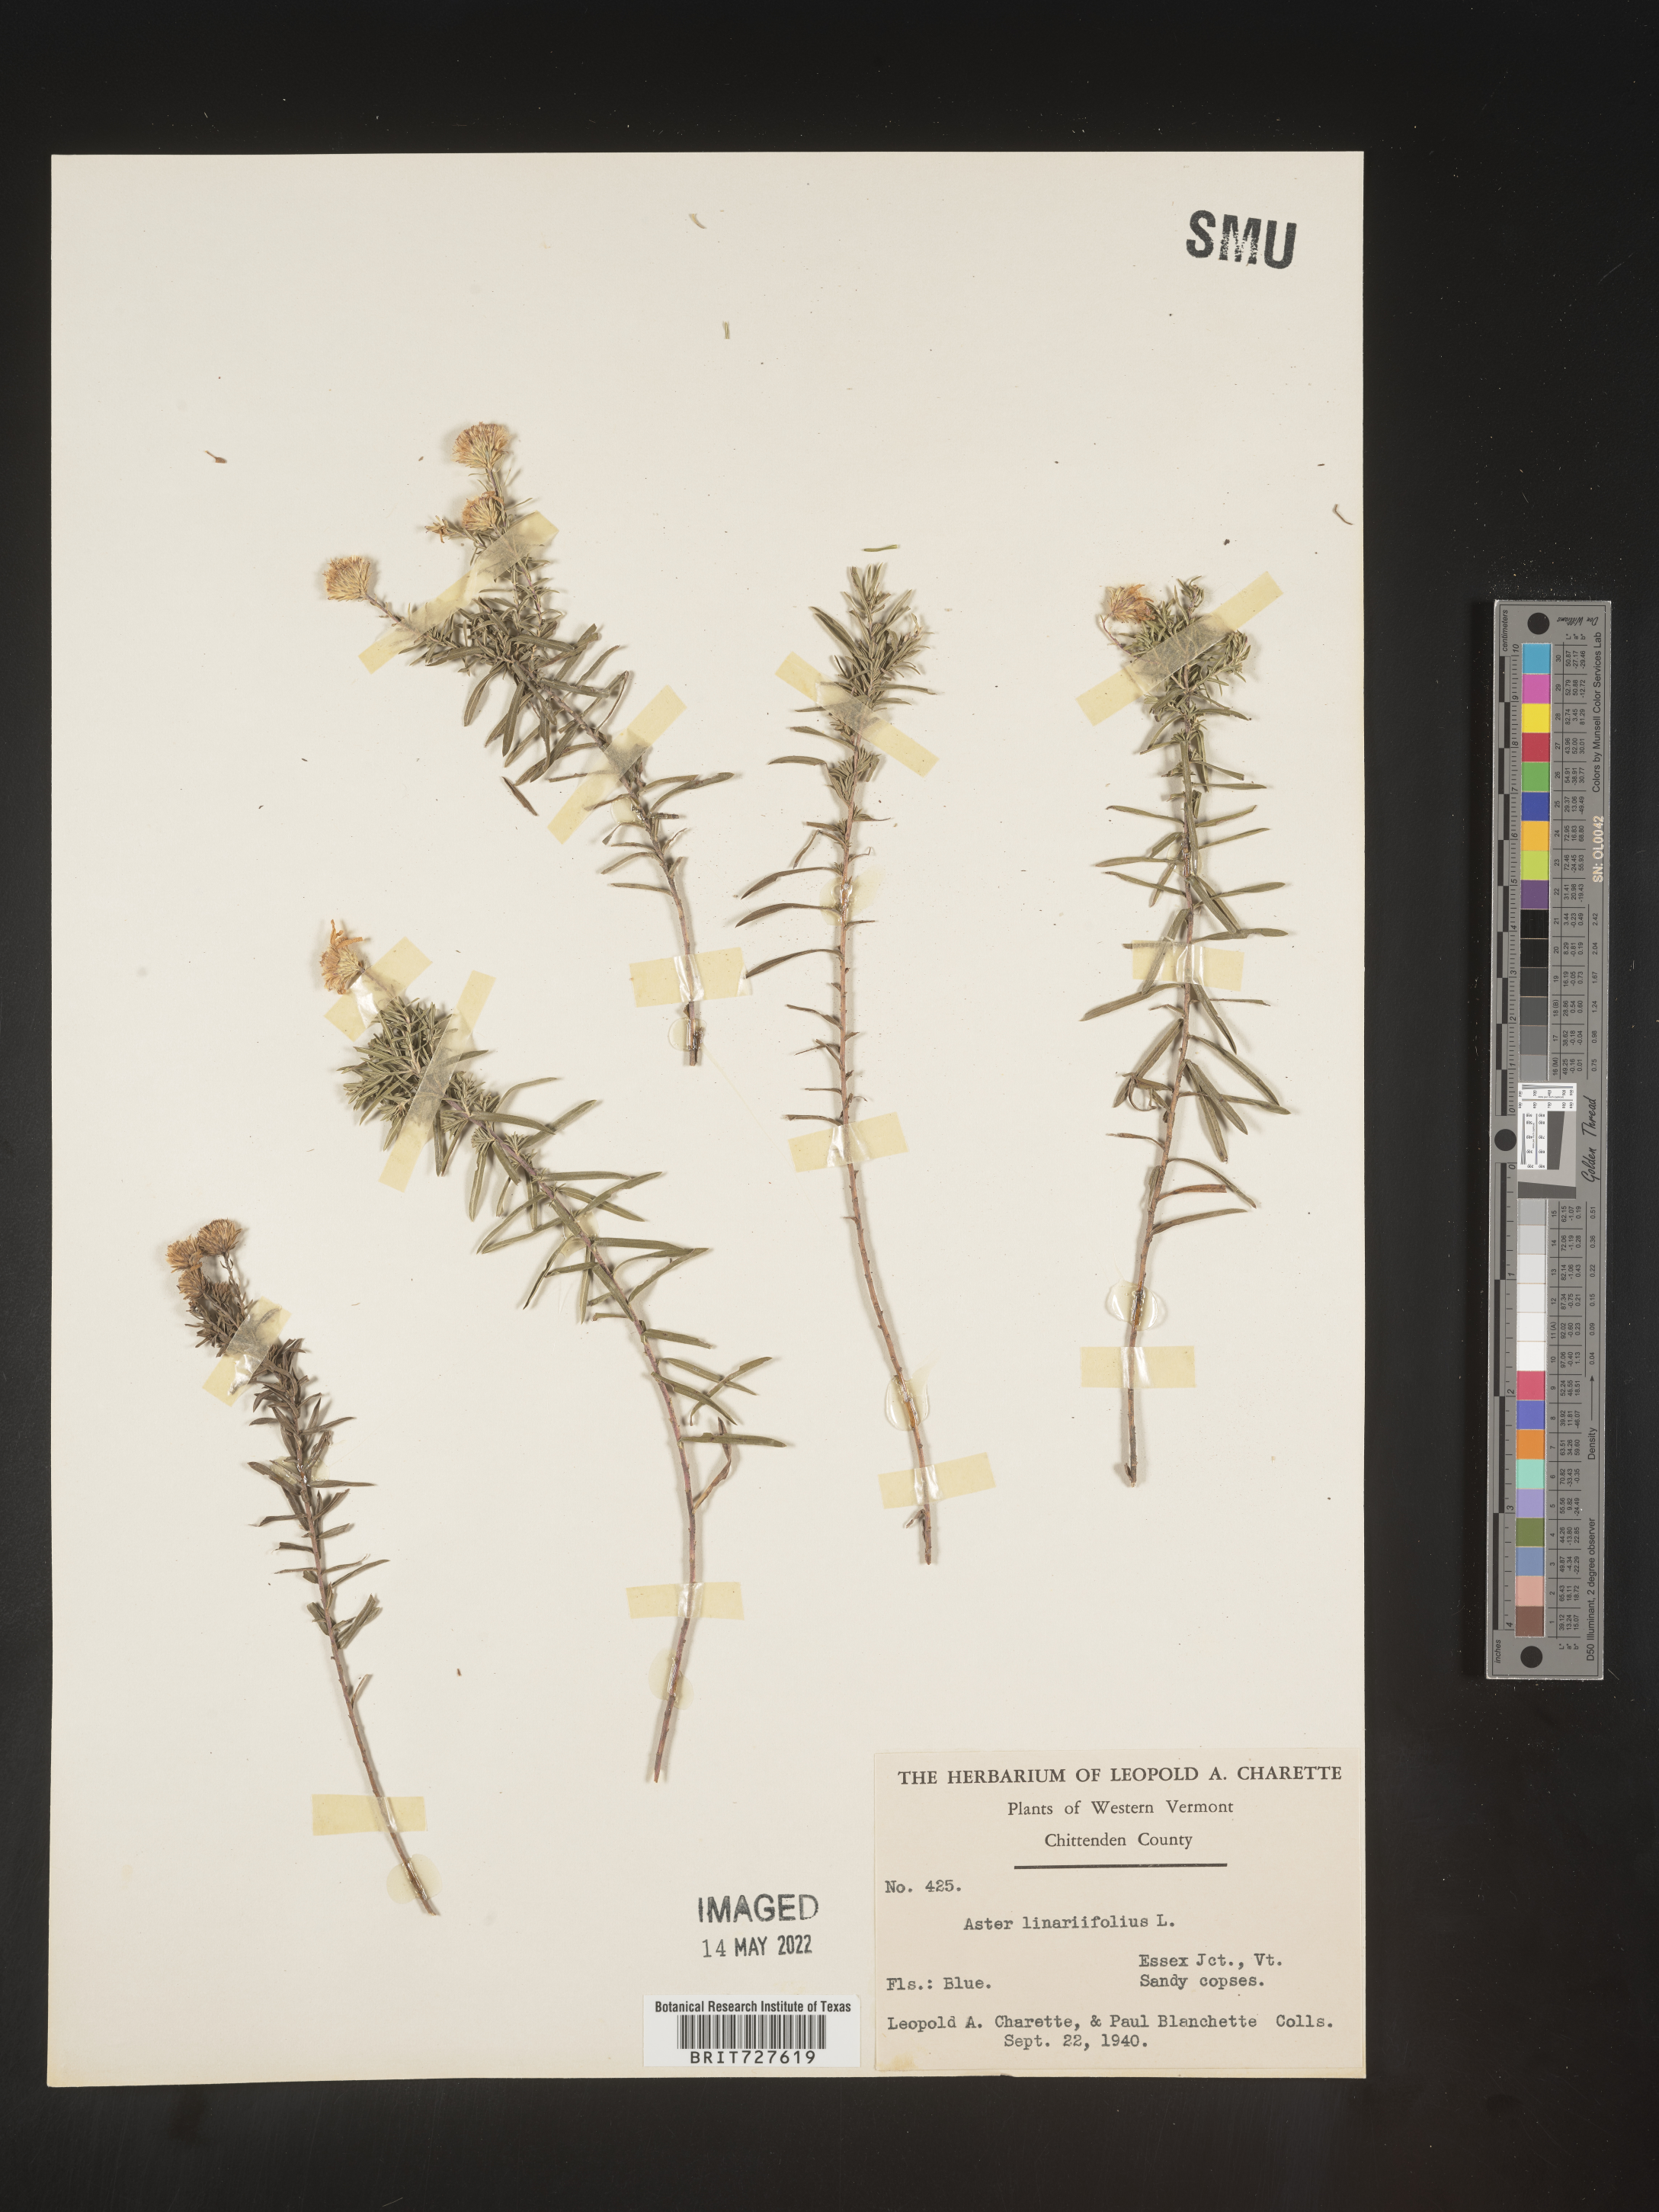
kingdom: Plantae
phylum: Tracheophyta
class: Magnoliopsida
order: Asterales
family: Asteraceae
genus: Ionactis
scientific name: Ionactis linariifolia
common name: Flax-leaf aster
